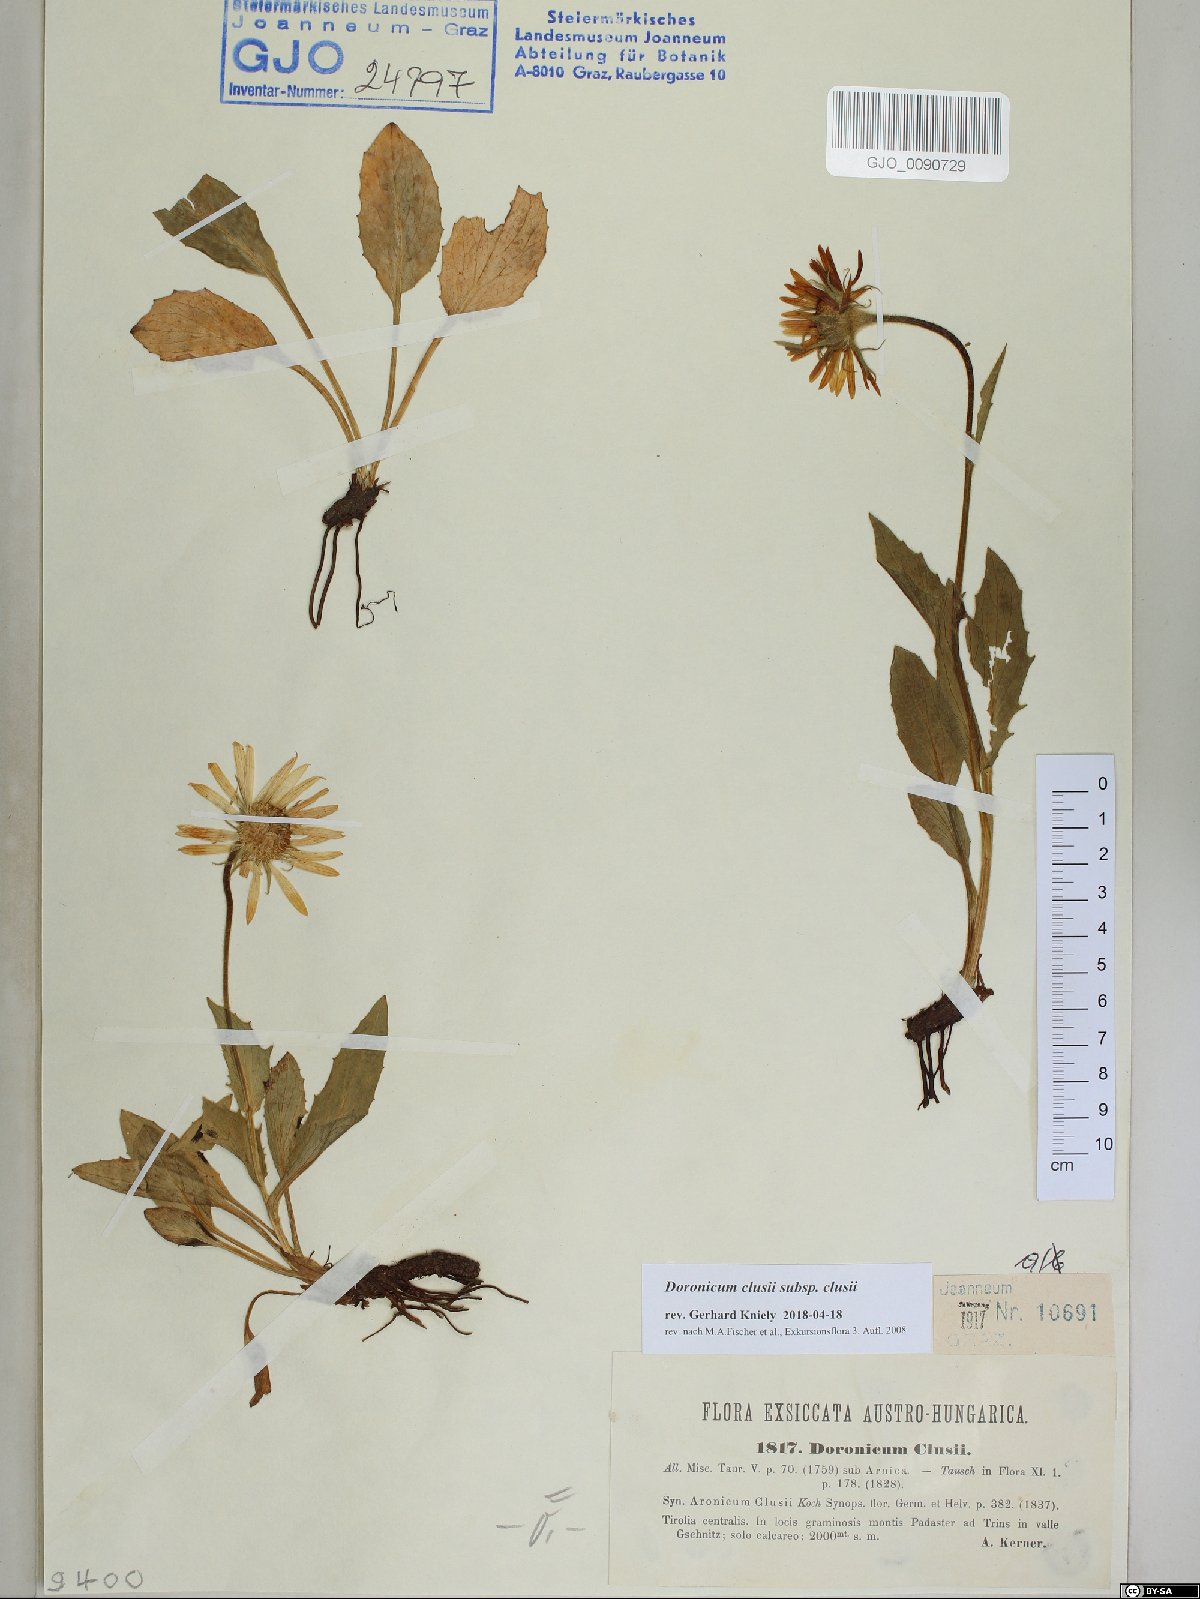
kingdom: Plantae
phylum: Tracheophyta
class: Magnoliopsida
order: Asterales
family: Asteraceae
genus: Doronicum
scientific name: Doronicum clusii
